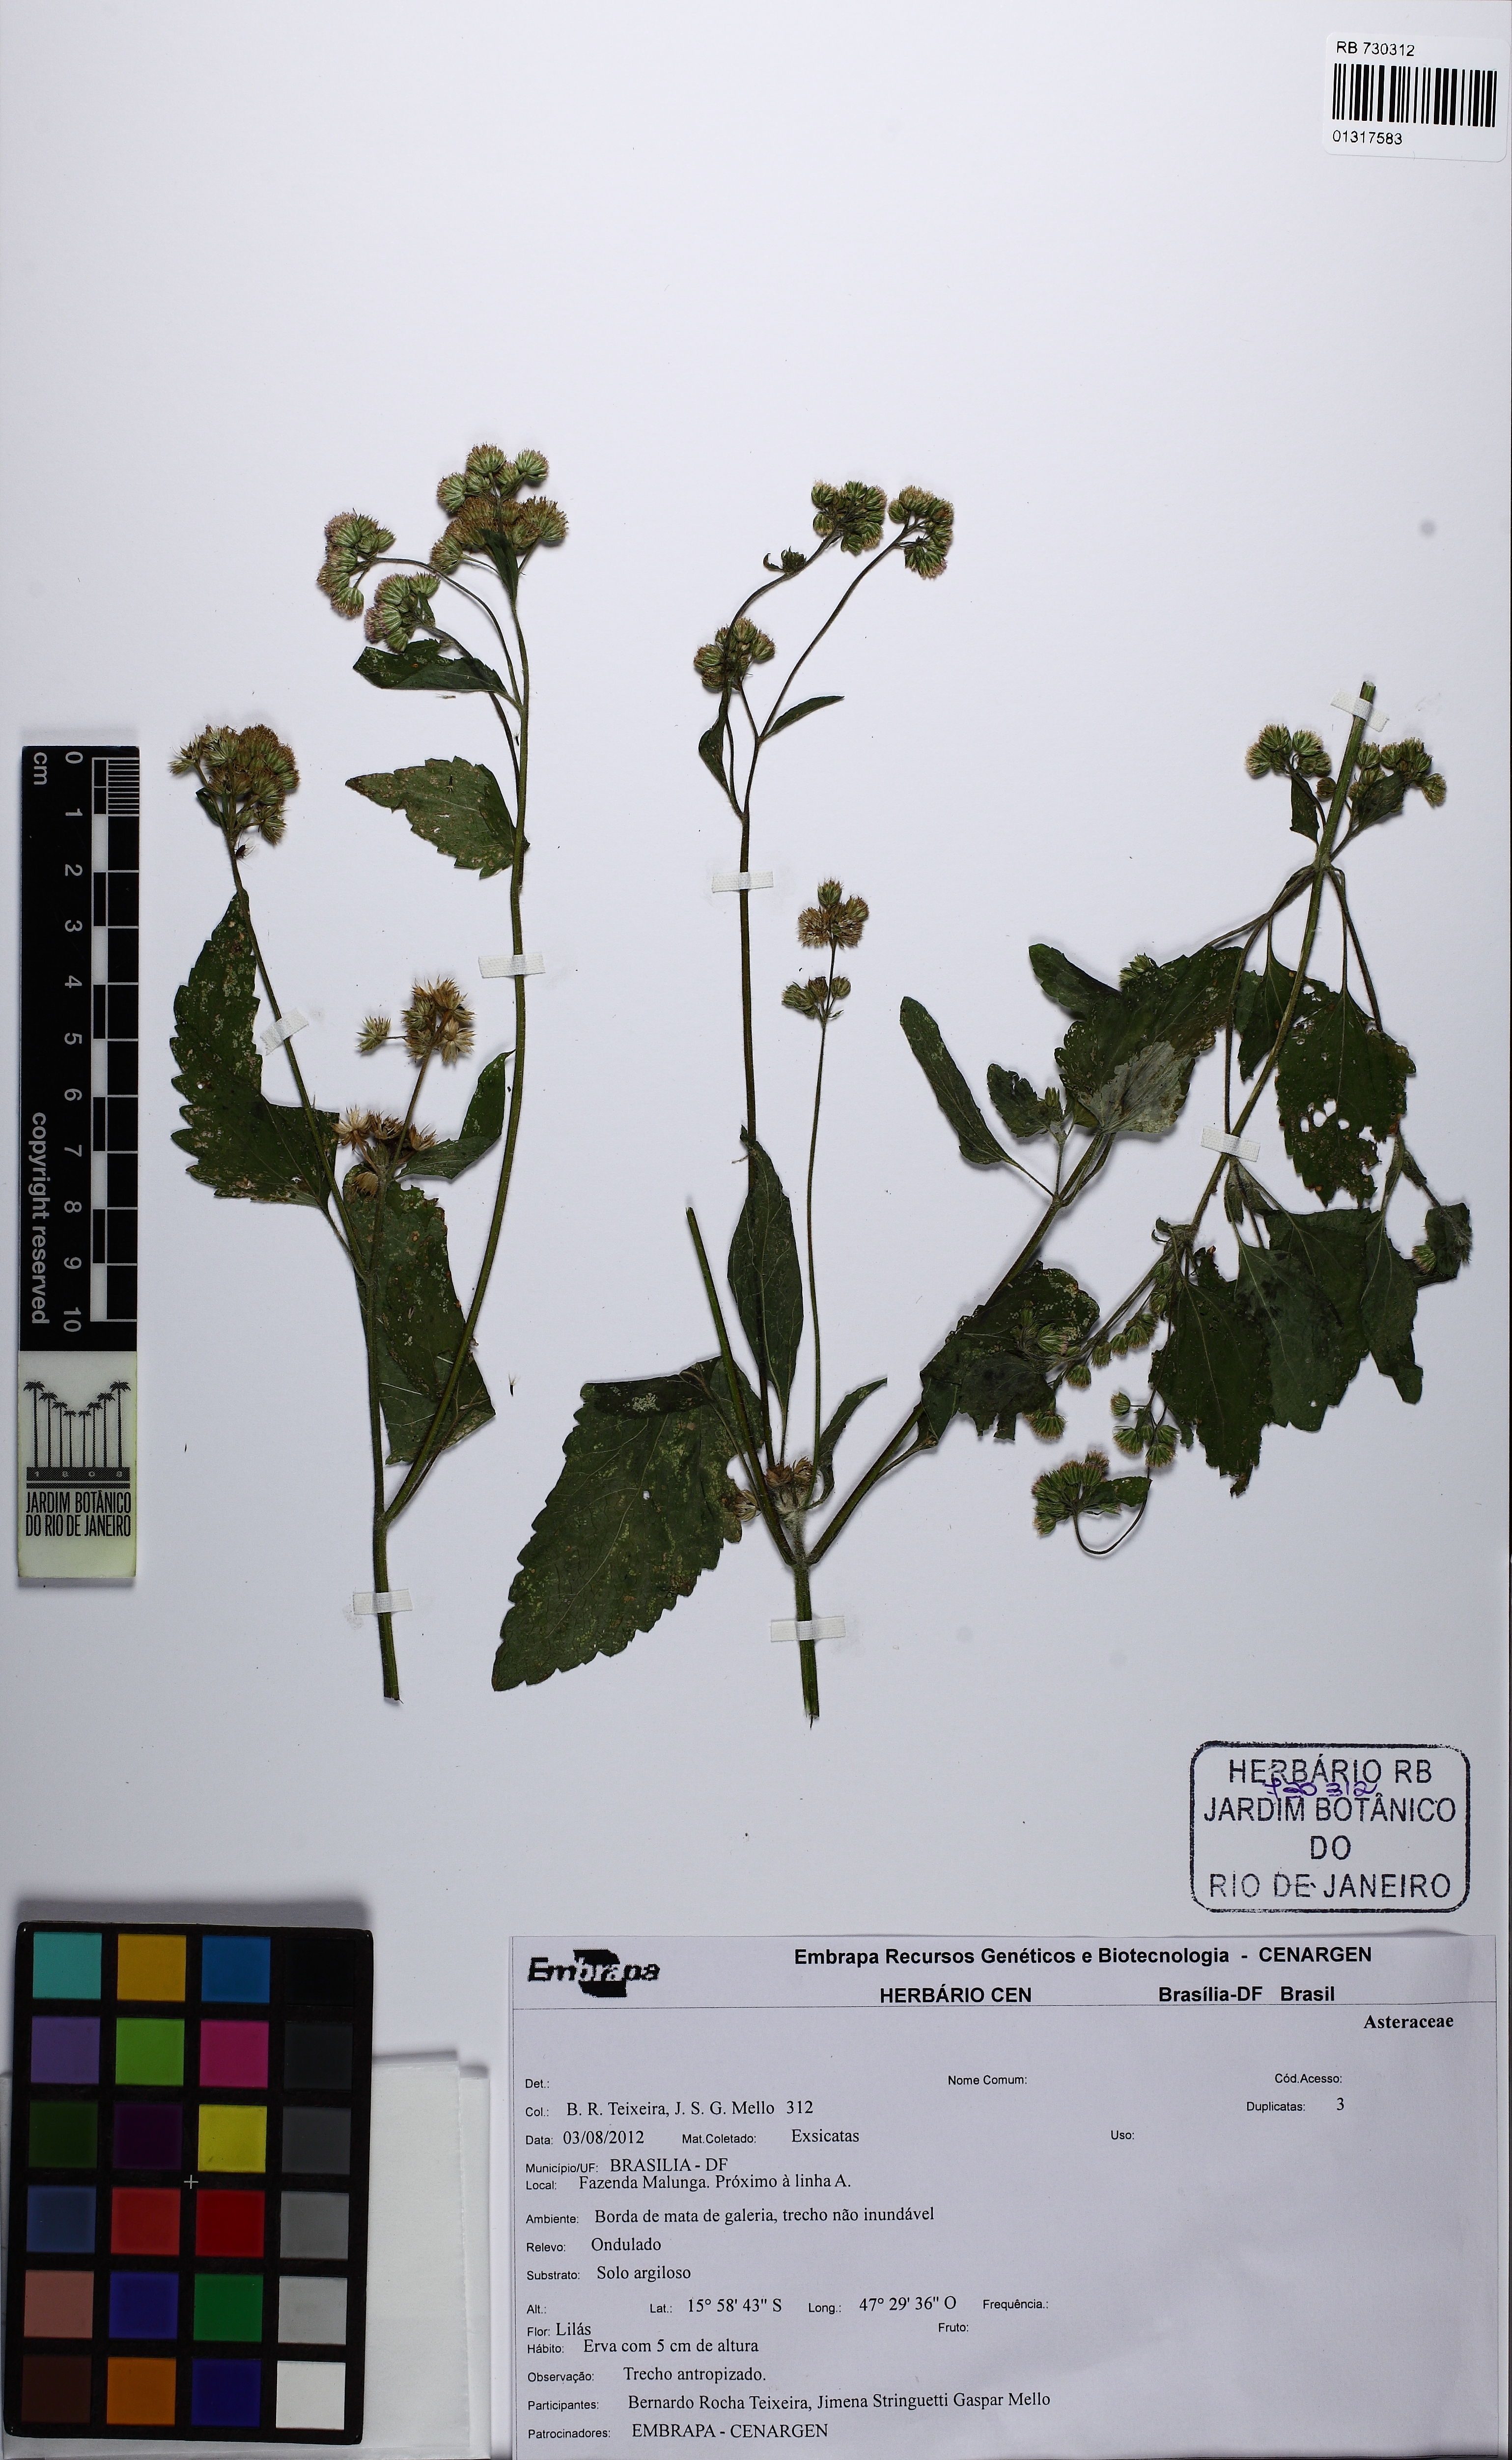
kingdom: Plantae
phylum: Tracheophyta
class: Magnoliopsida
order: Asterales
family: Asteraceae
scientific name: Asteraceae
